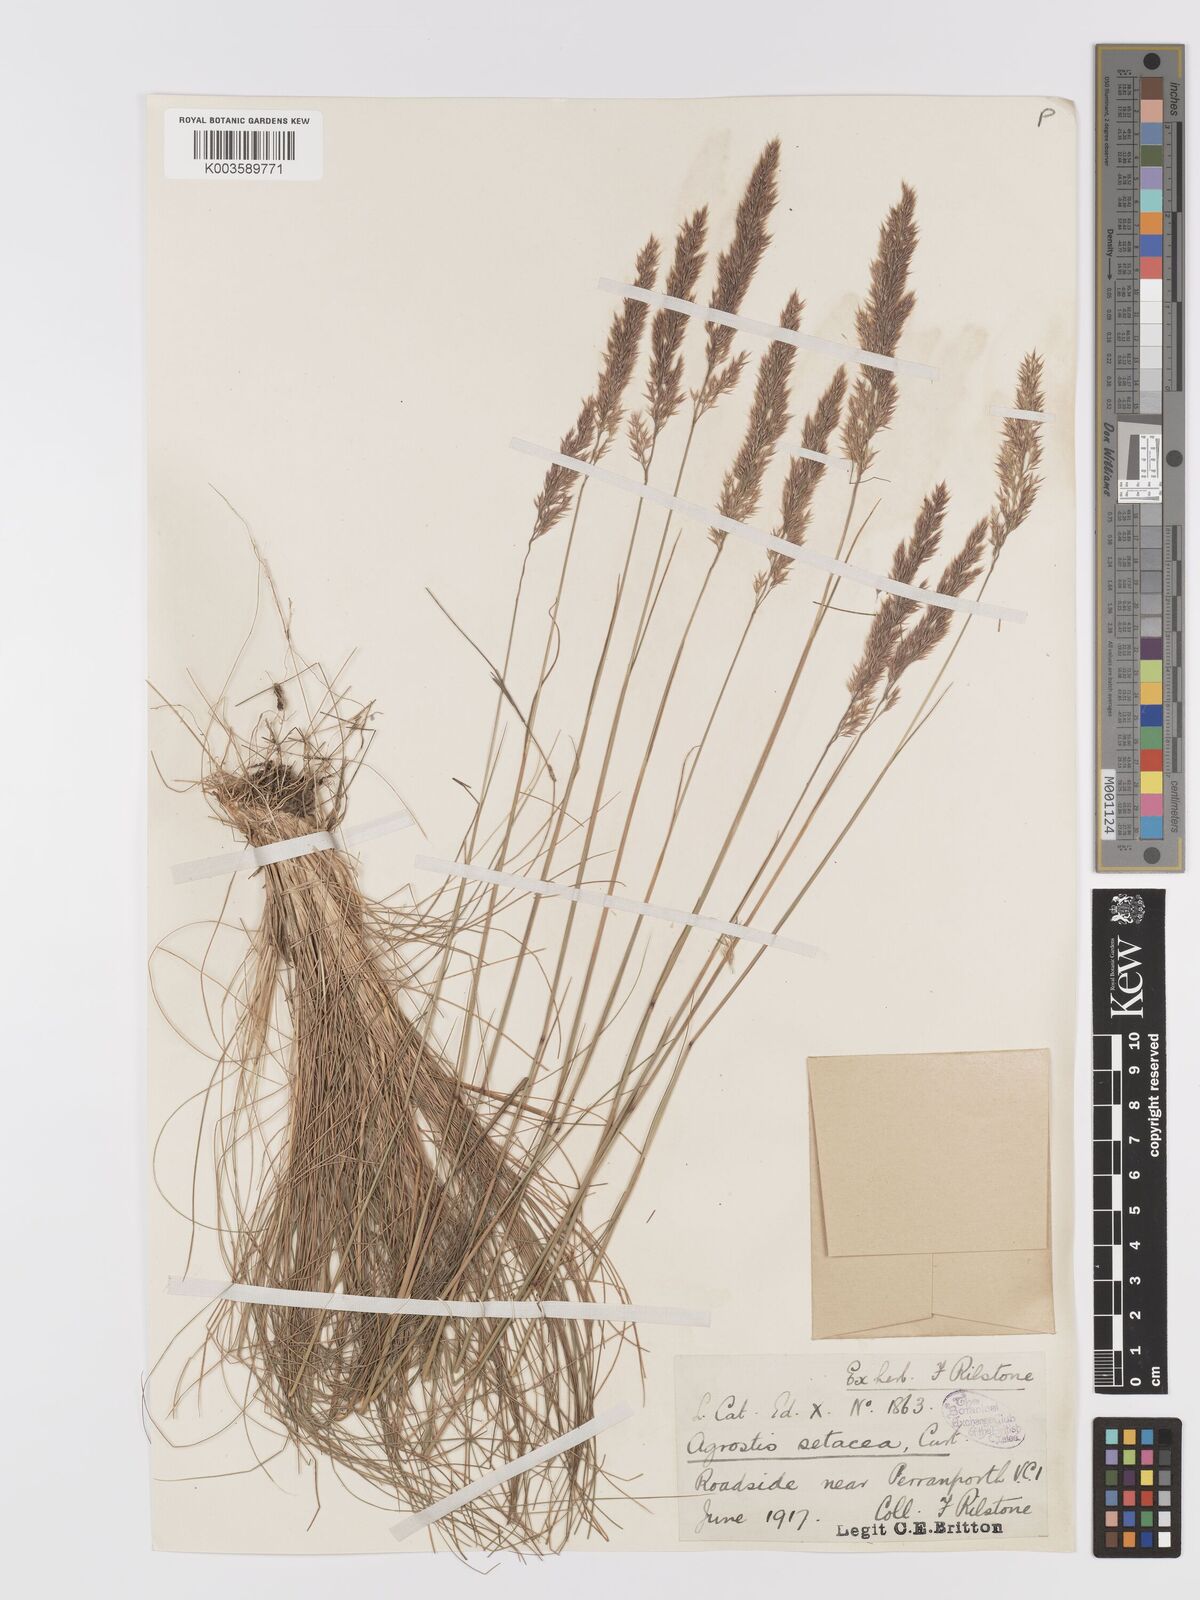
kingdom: Plantae
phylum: Tracheophyta
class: Liliopsida
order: Poales
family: Poaceae
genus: Alpagrostis
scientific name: Alpagrostis setacea
